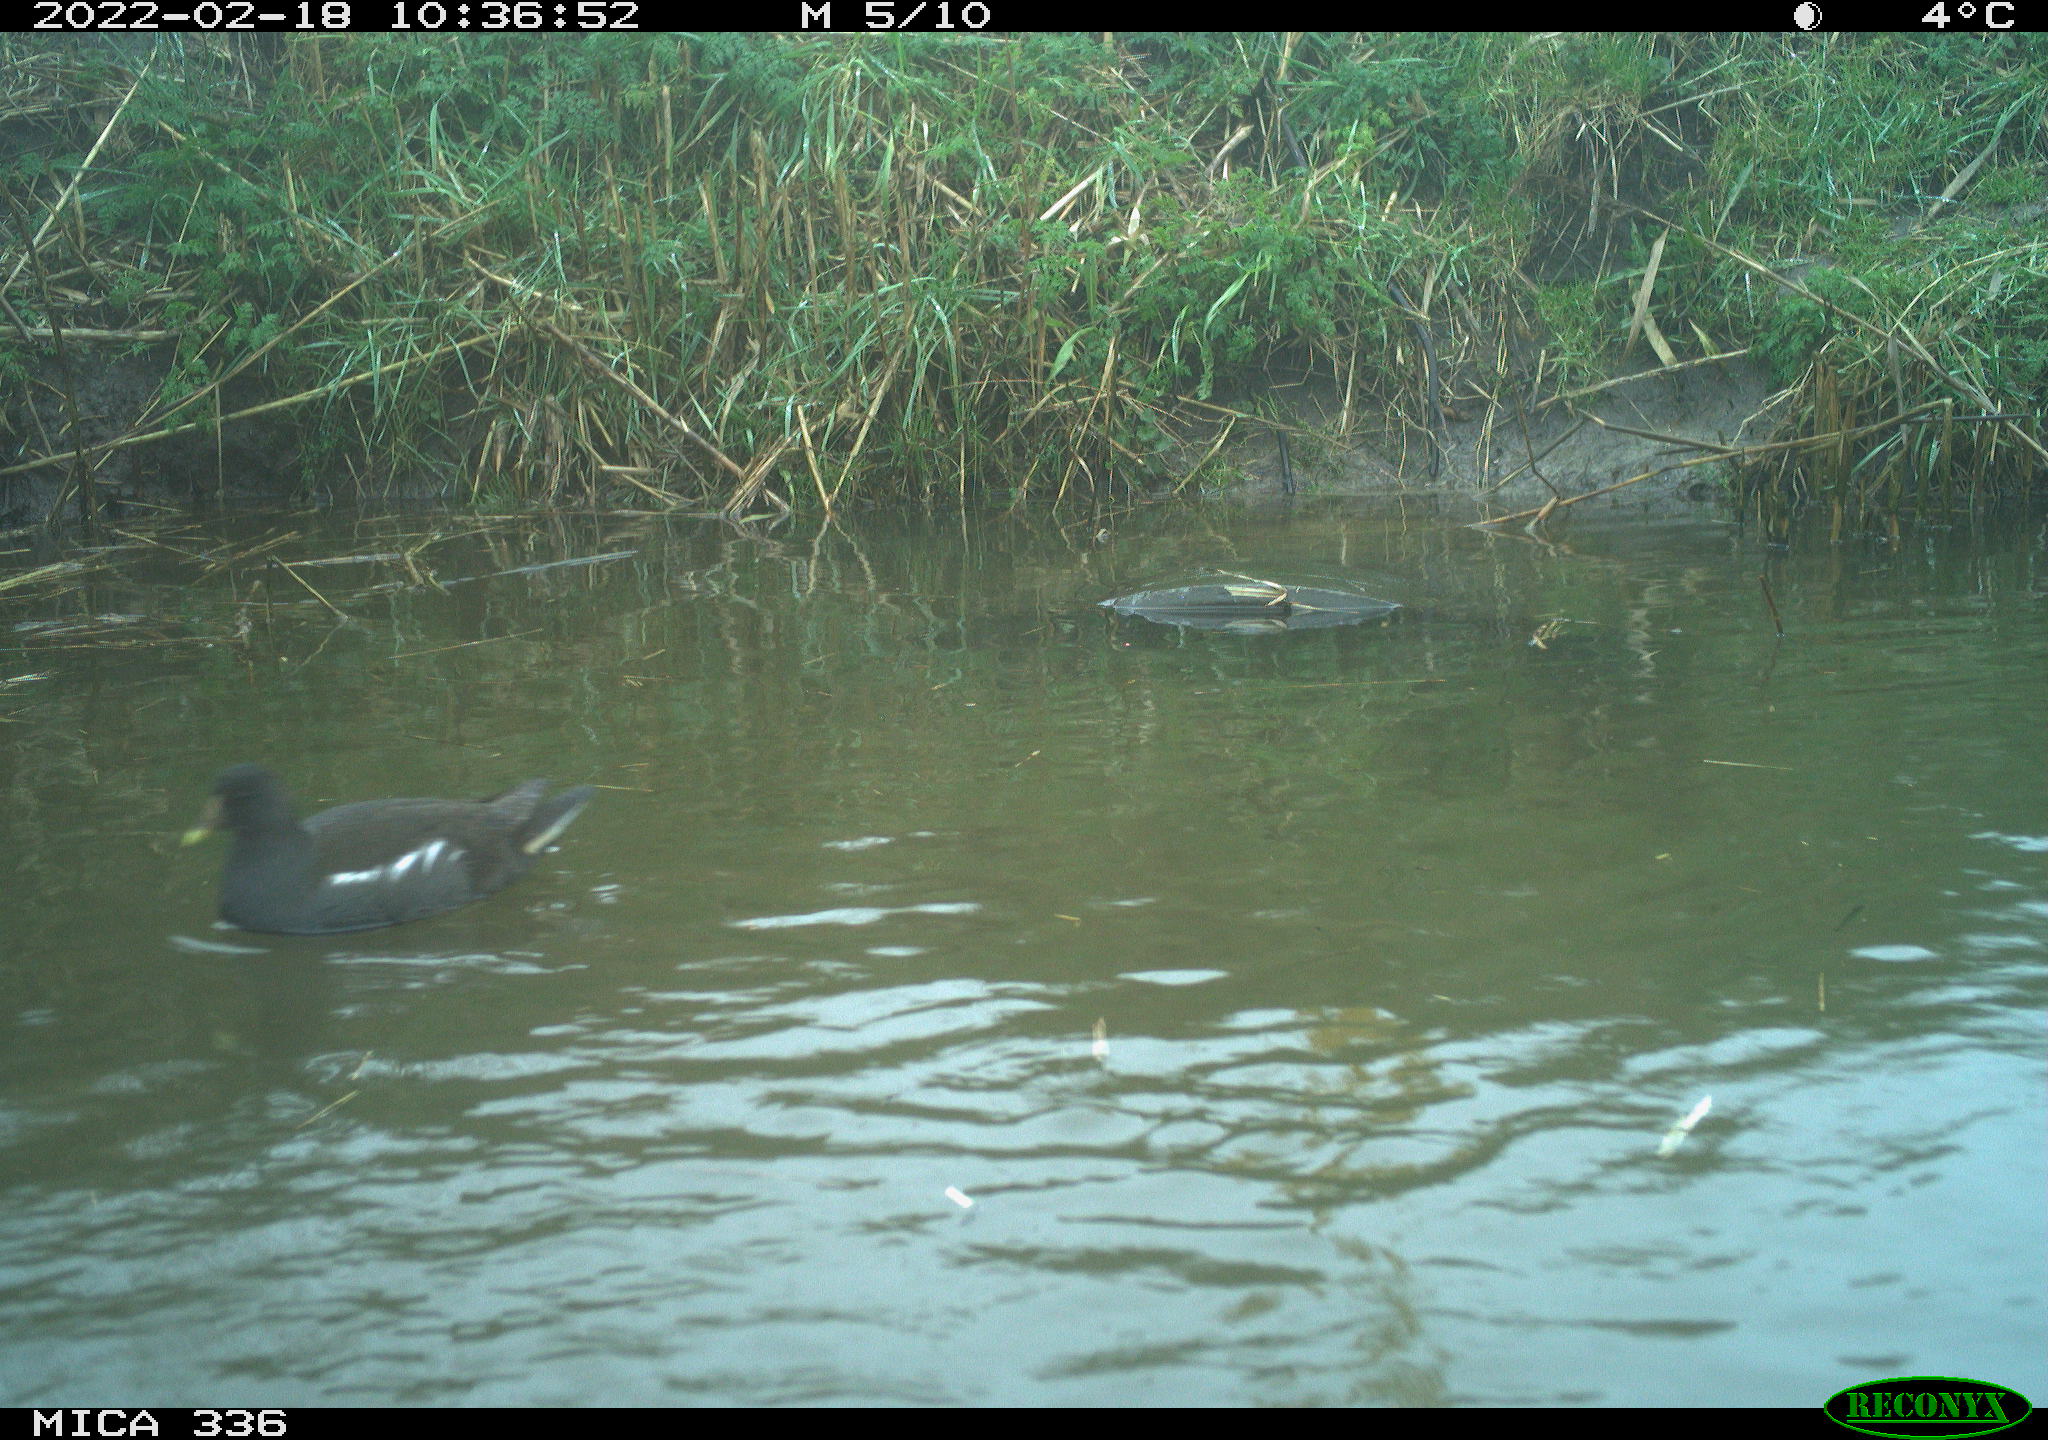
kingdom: Animalia
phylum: Chordata
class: Aves
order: Gruiformes
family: Rallidae
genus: Gallinula
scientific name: Gallinula chloropus
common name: Common moorhen
